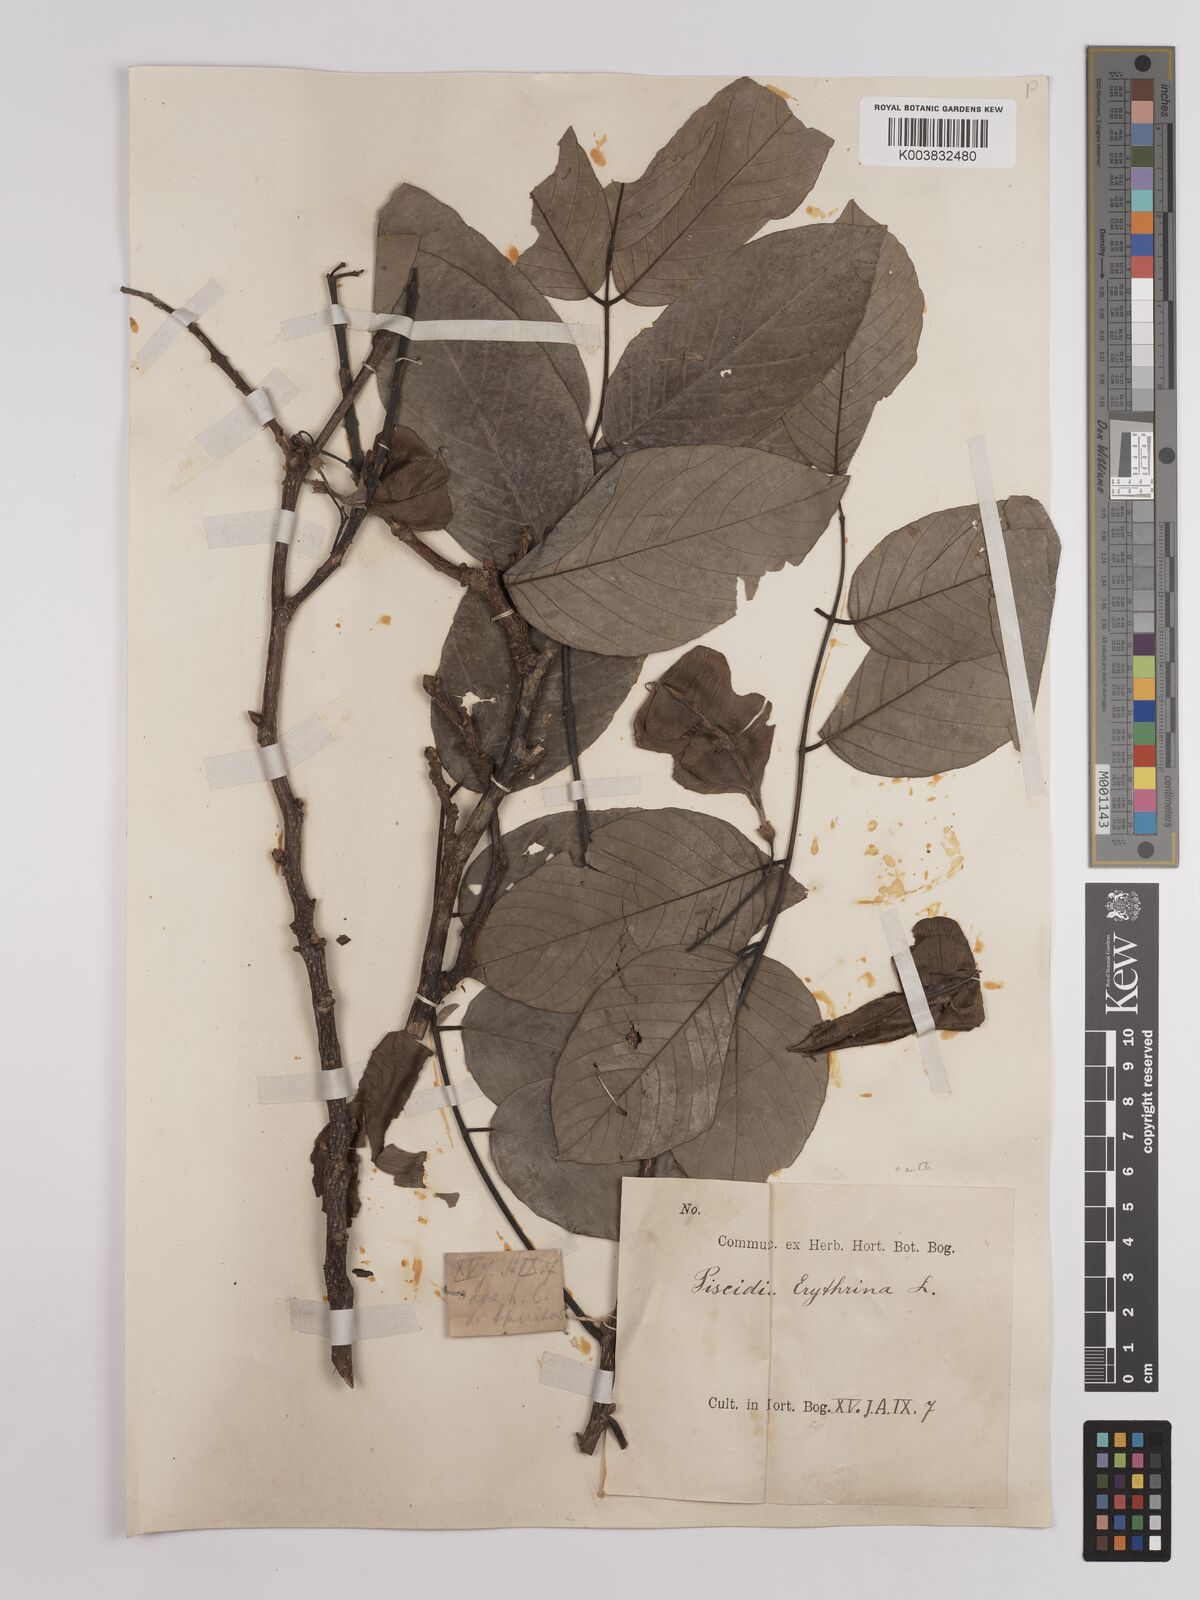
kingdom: Plantae
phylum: Tracheophyta
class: Magnoliopsida
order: Fabales
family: Fabaceae
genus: Piscidia
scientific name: Piscidia
